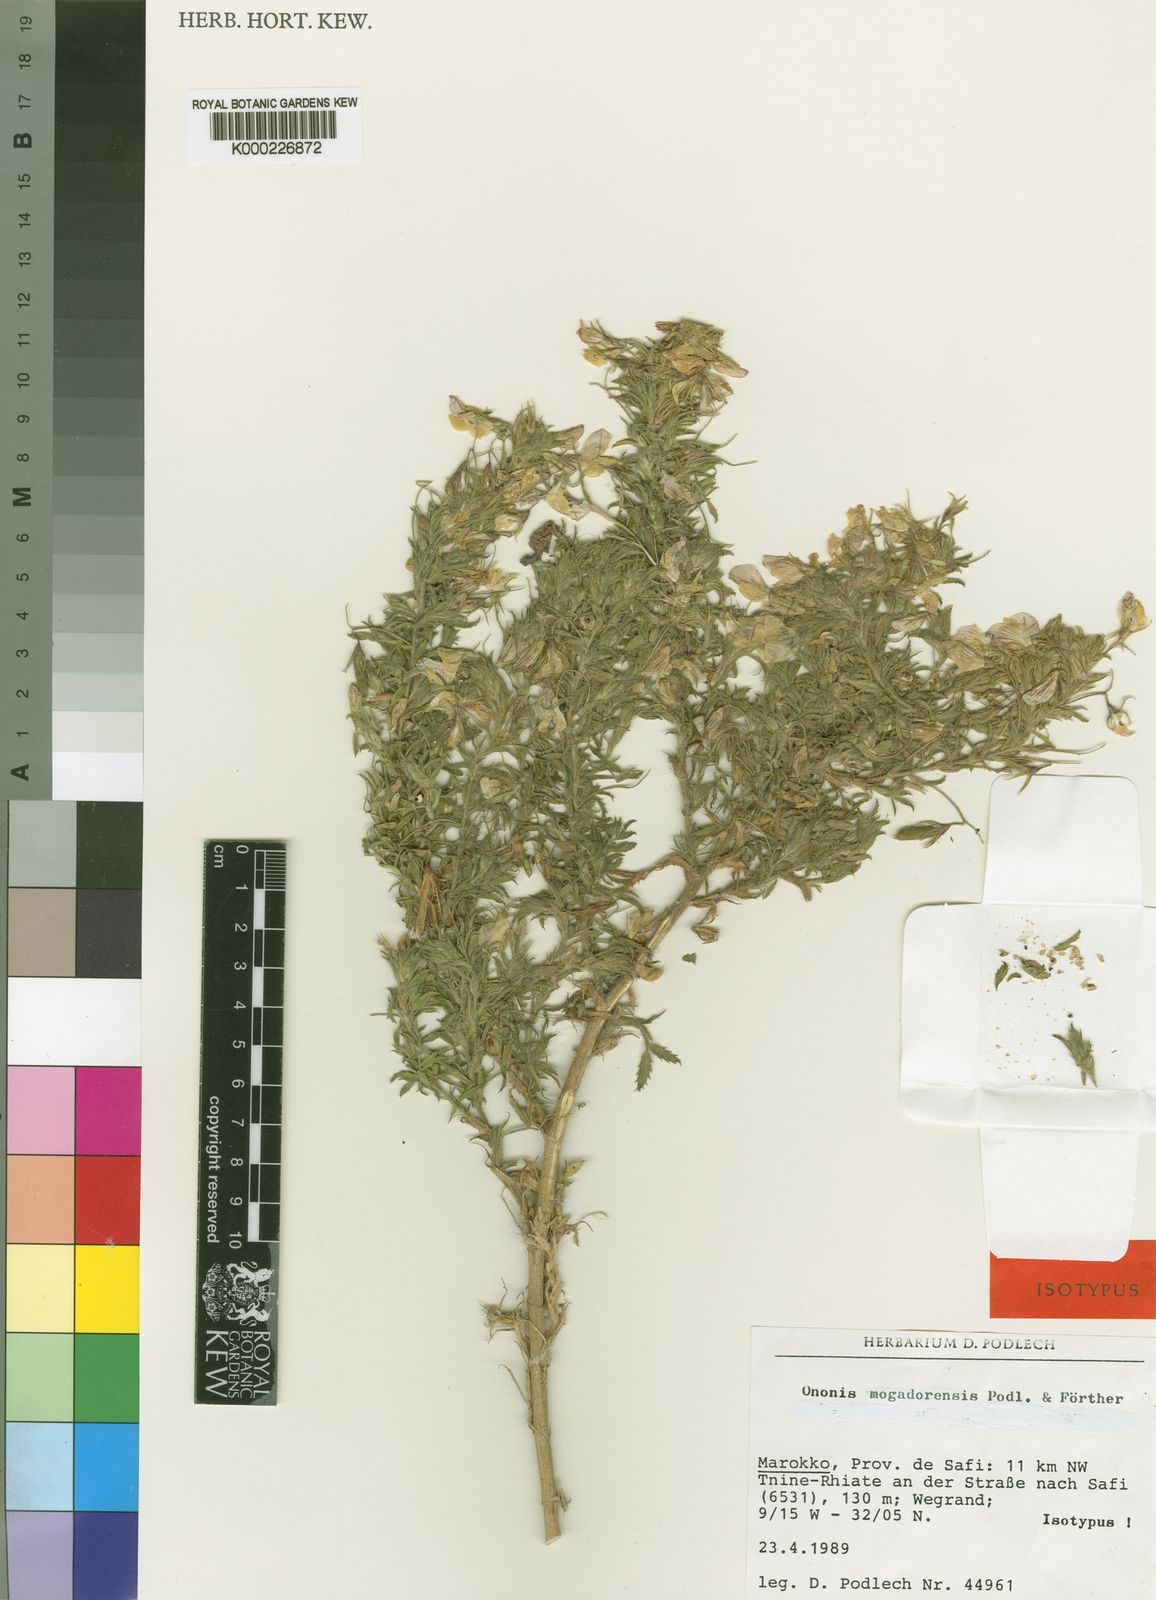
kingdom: Plantae
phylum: Tracheophyta
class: Magnoliopsida
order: Fabales
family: Fabaceae
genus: Ononis
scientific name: Ononis
